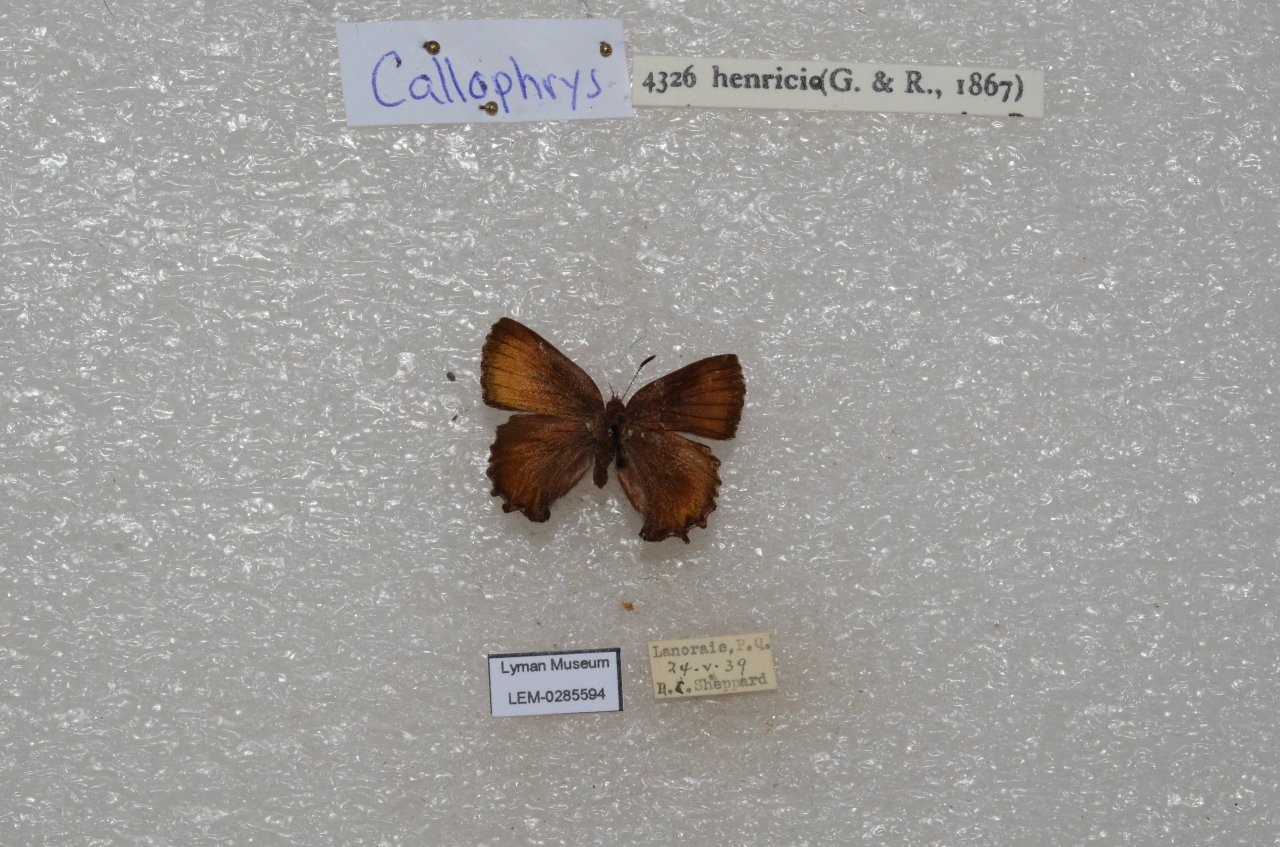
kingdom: Animalia
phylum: Arthropoda
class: Insecta
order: Lepidoptera
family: Lycaenidae
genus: Incisalia
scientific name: Incisalia henrici
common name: Henry's Elfin
